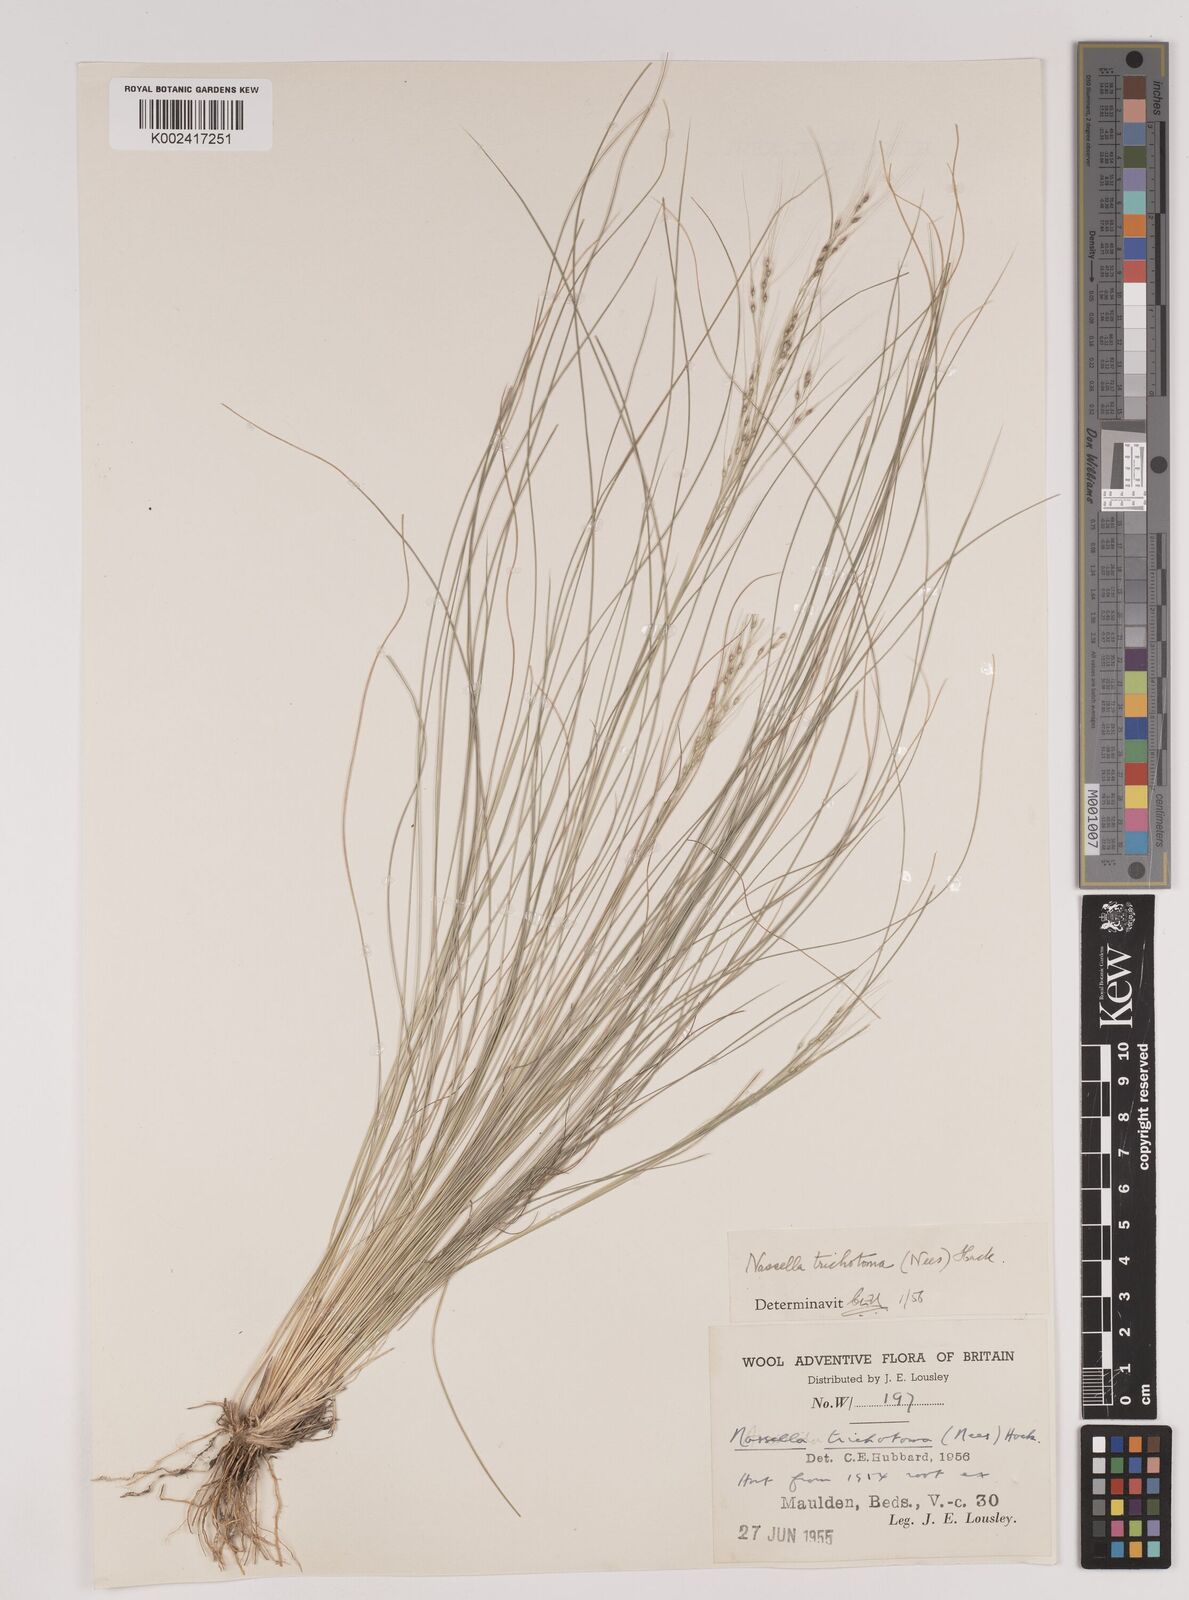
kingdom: Plantae
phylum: Tracheophyta
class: Liliopsida
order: Poales
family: Poaceae
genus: Nassella
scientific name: Nassella trichotoma
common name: Serrated tussock grass
